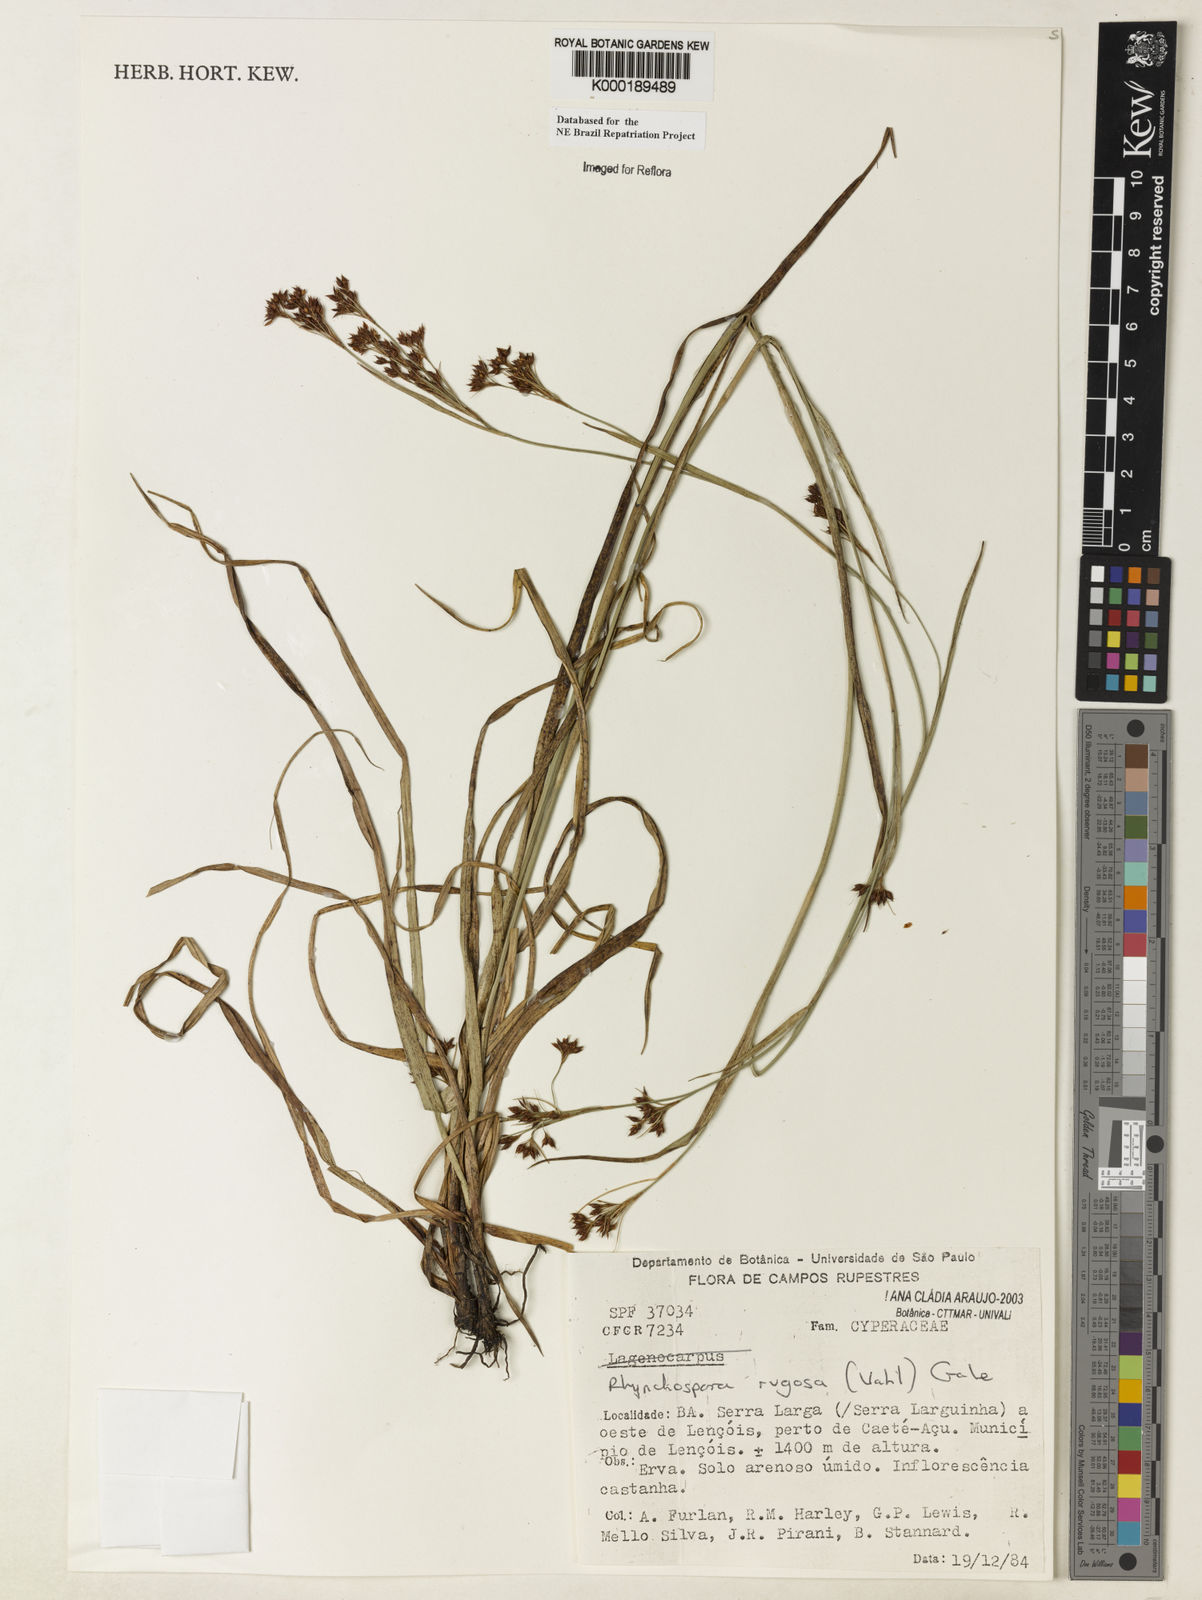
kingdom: Plantae
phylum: Tracheophyta
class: Liliopsida
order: Poales
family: Cyperaceae
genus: Rhynchospora
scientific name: Rhynchospora rugosa
